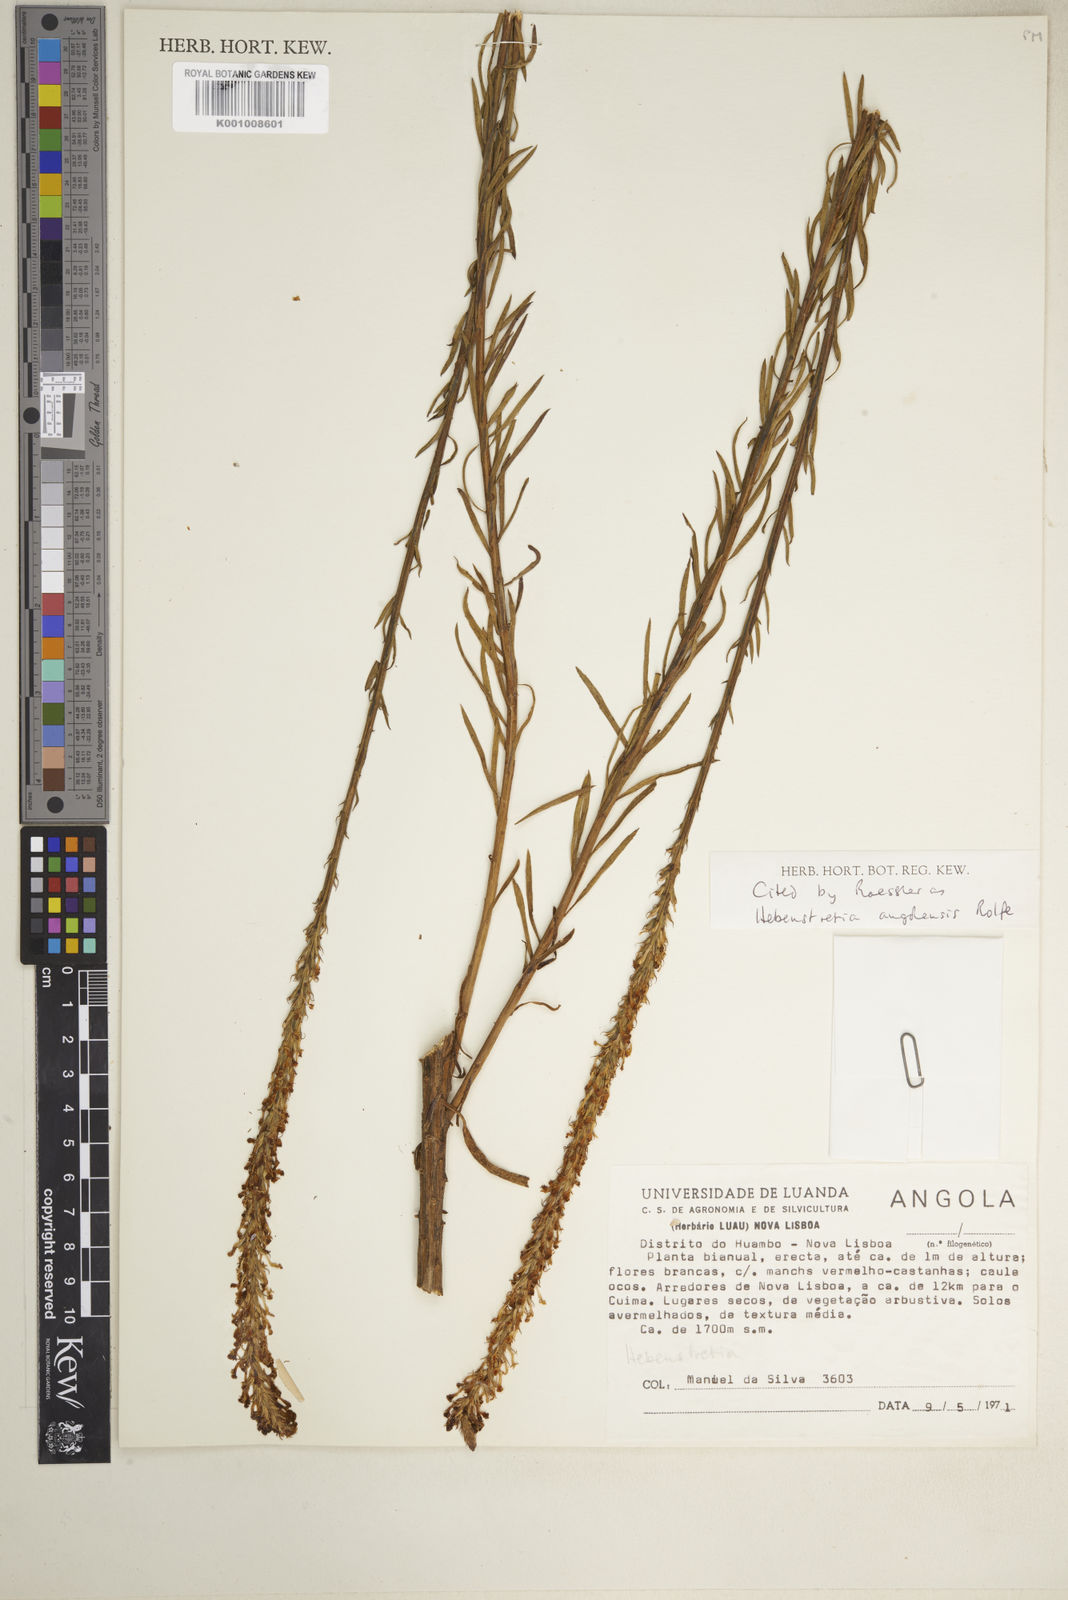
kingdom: Plantae
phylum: Tracheophyta
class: Magnoliopsida
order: Lamiales
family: Scrophulariaceae
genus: Hebenstretia
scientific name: Hebenstretia angolensis
